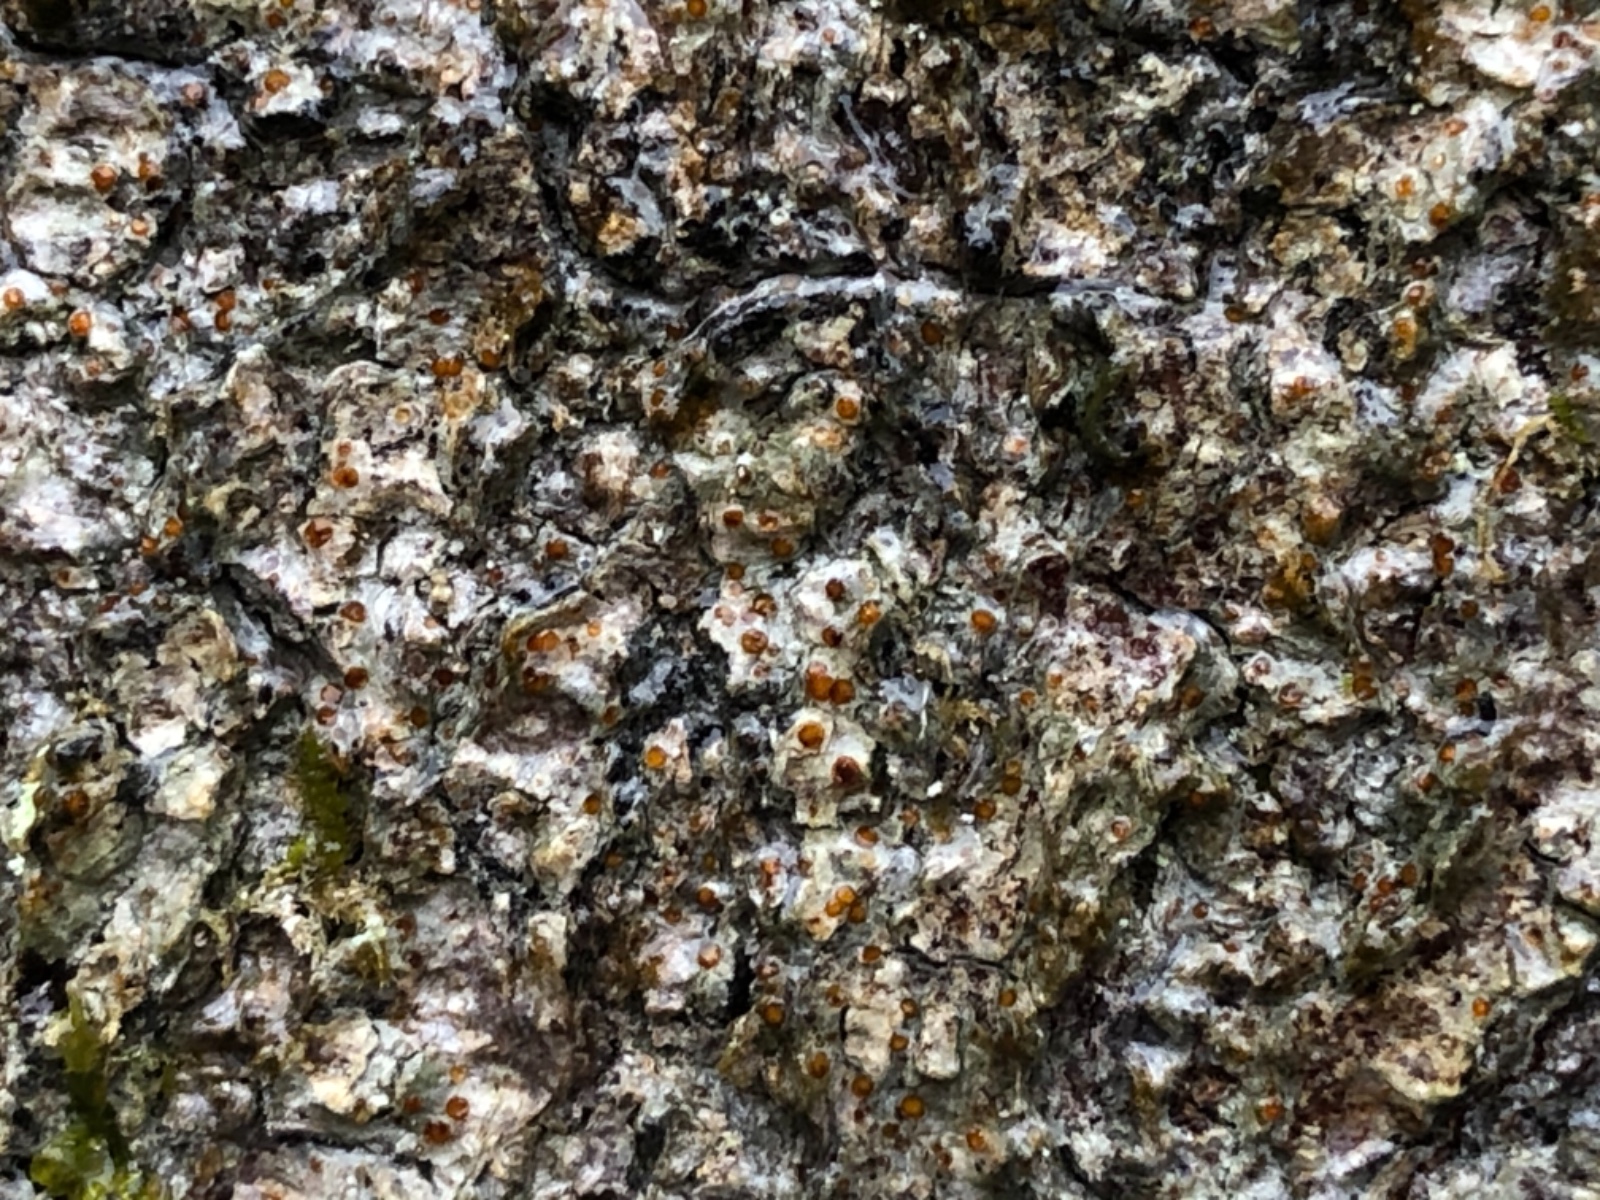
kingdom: Fungi
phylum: Ascomycota
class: Lecanoromycetes
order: Gyalectales
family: Gyalectaceae
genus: Pachyphiale
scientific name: Pachyphiale carneola
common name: rødbrun gammelskovslav
